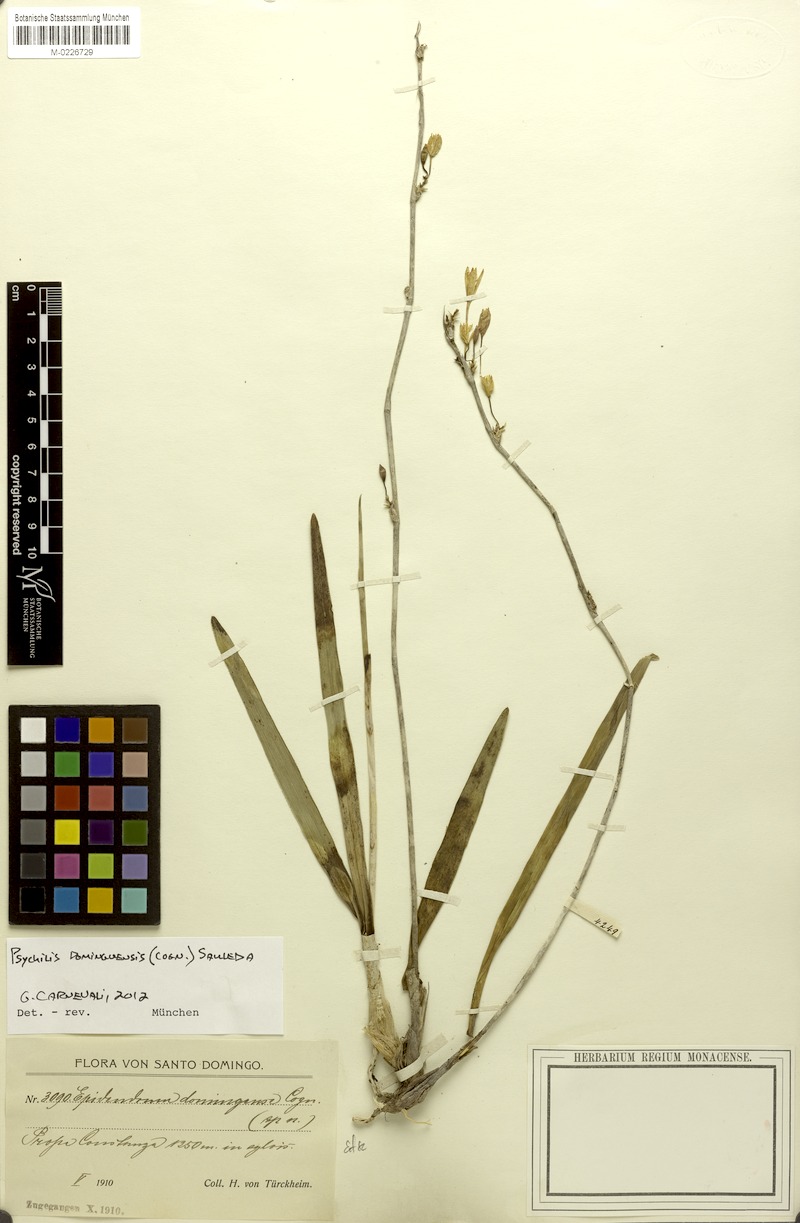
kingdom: Plantae
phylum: Tracheophyta
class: Liliopsida
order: Asparagales
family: Orchidaceae
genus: Psychilis
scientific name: Psychilis domingensis
